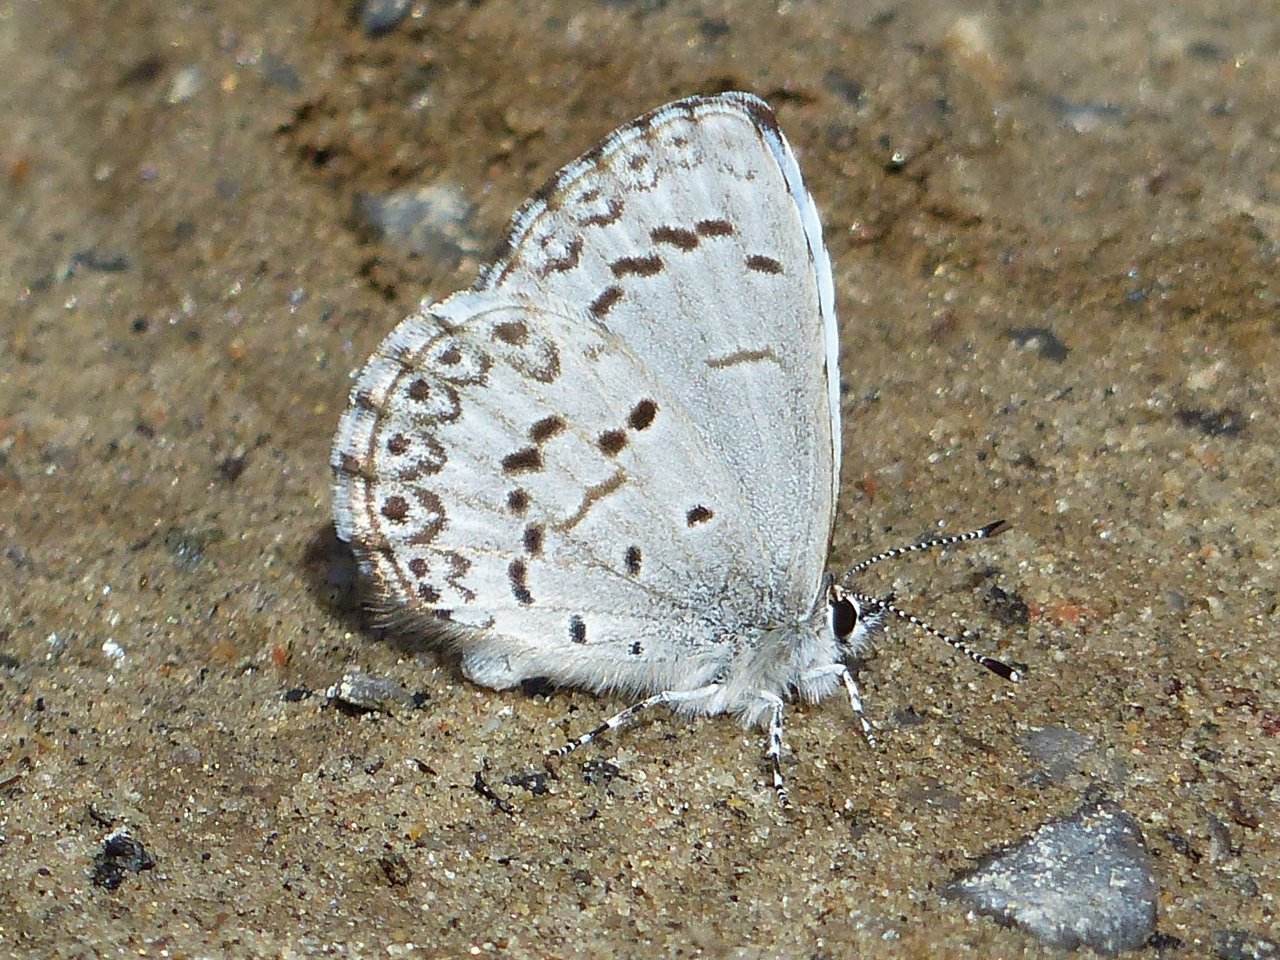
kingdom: Animalia
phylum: Arthropoda
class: Insecta
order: Lepidoptera
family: Lycaenidae
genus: Celastrina
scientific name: Celastrina lucia
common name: Northern Spring Azure
